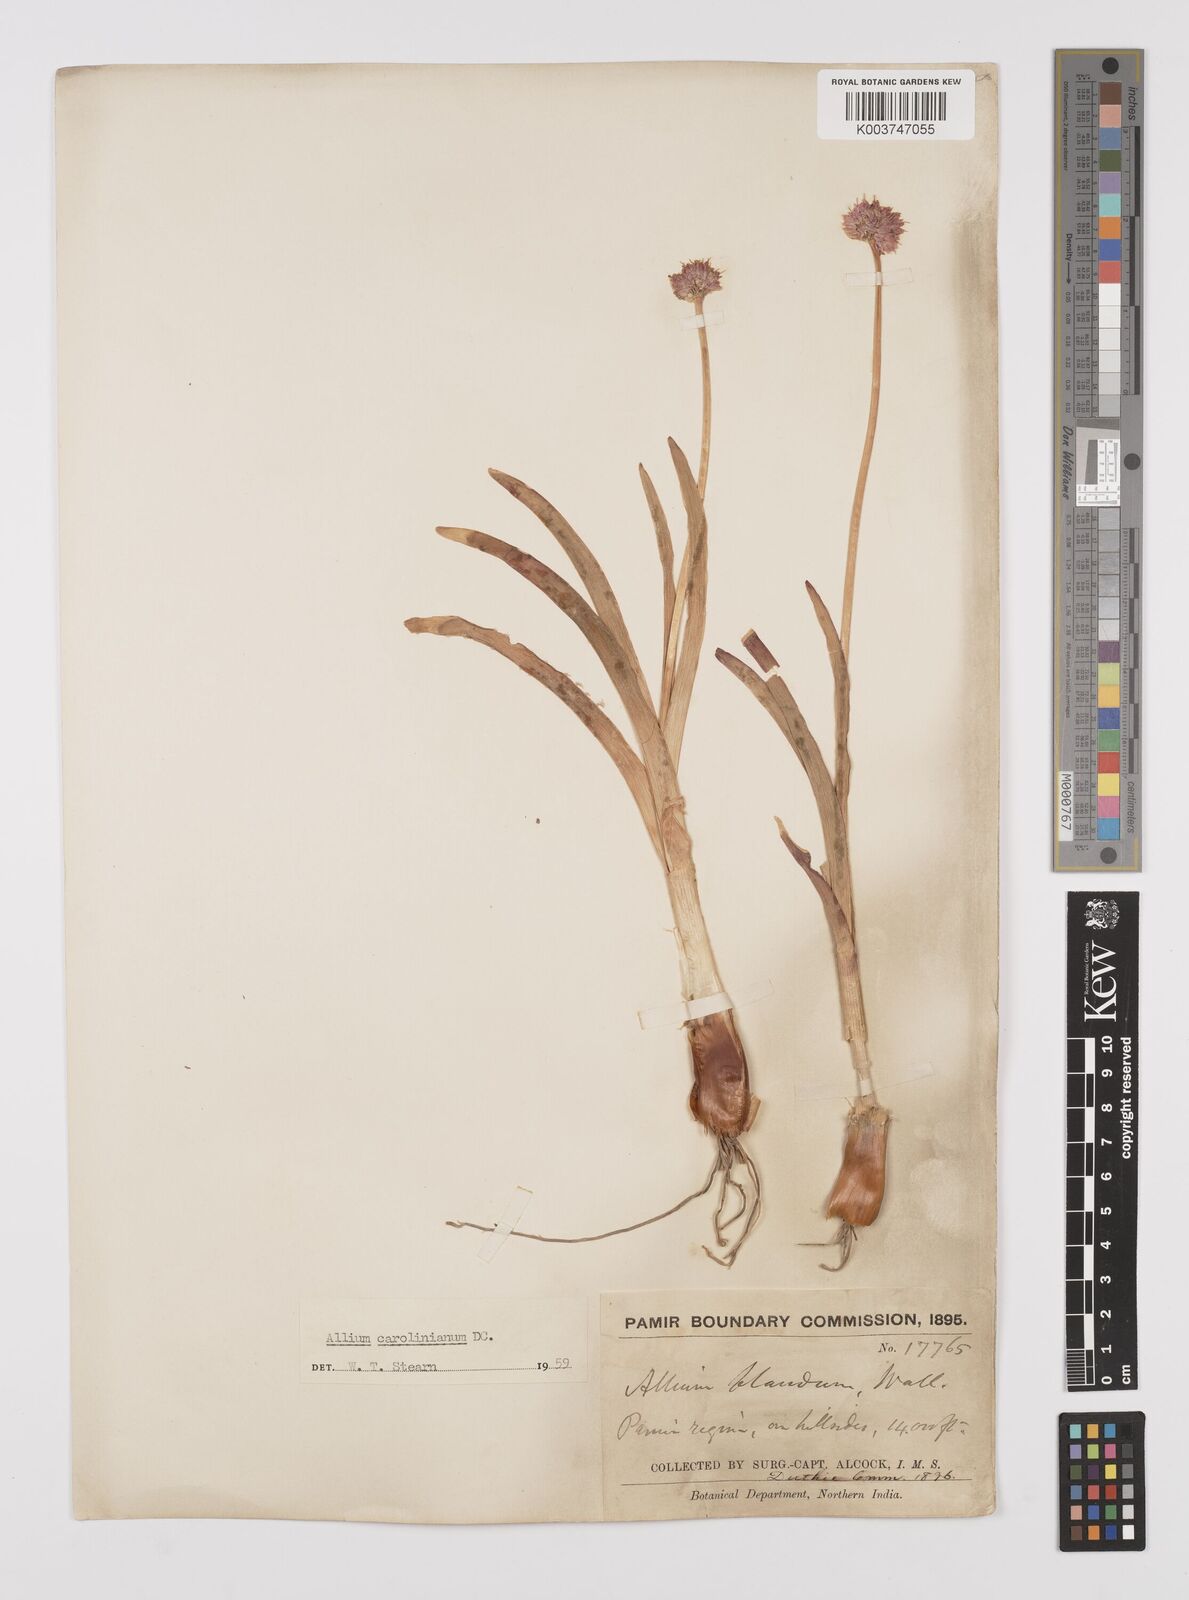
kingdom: Plantae
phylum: Tracheophyta
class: Liliopsida
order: Asparagales
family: Amaryllidaceae
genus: Allium
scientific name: Allium blandum
